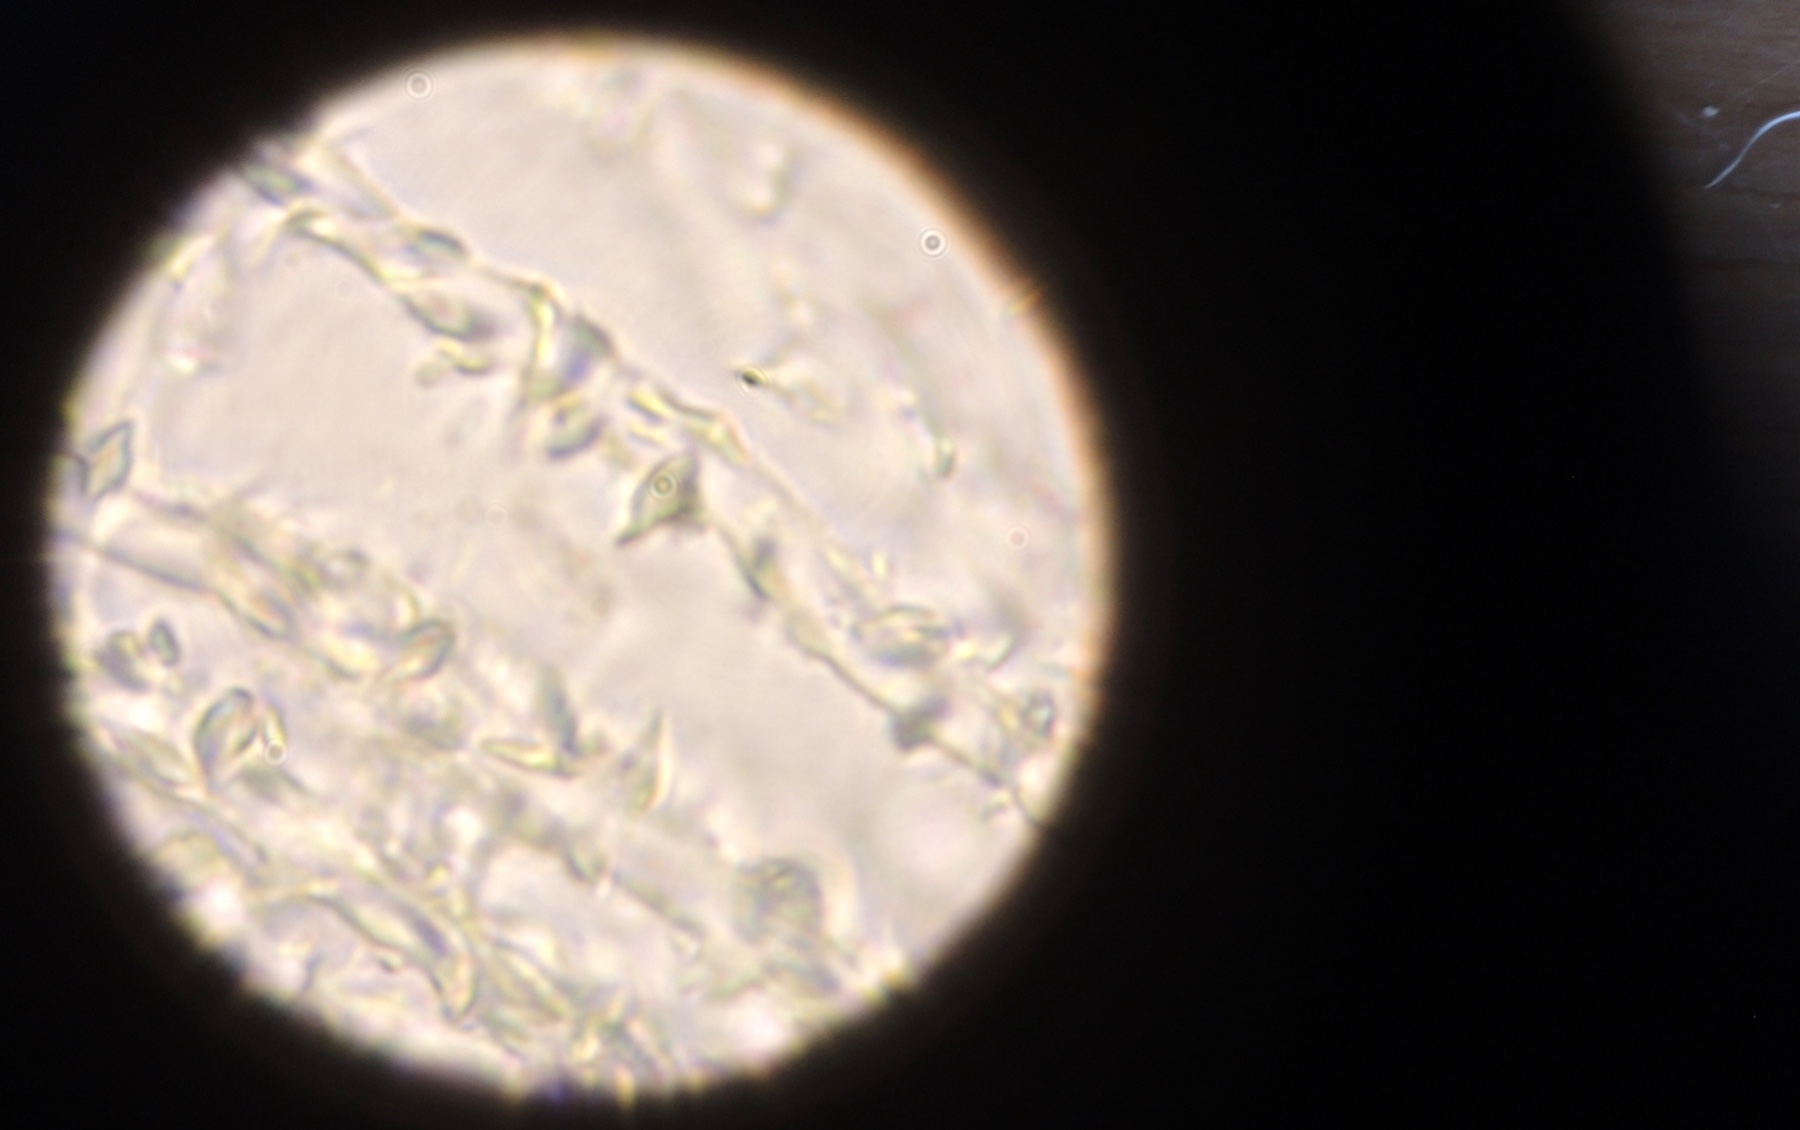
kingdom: Fungi
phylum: Basidiomycota
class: Agaricomycetes
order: Agaricales
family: Niaceae
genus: Flagelloscypha
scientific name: Flagelloscypha minutissima
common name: lille hængeskål
